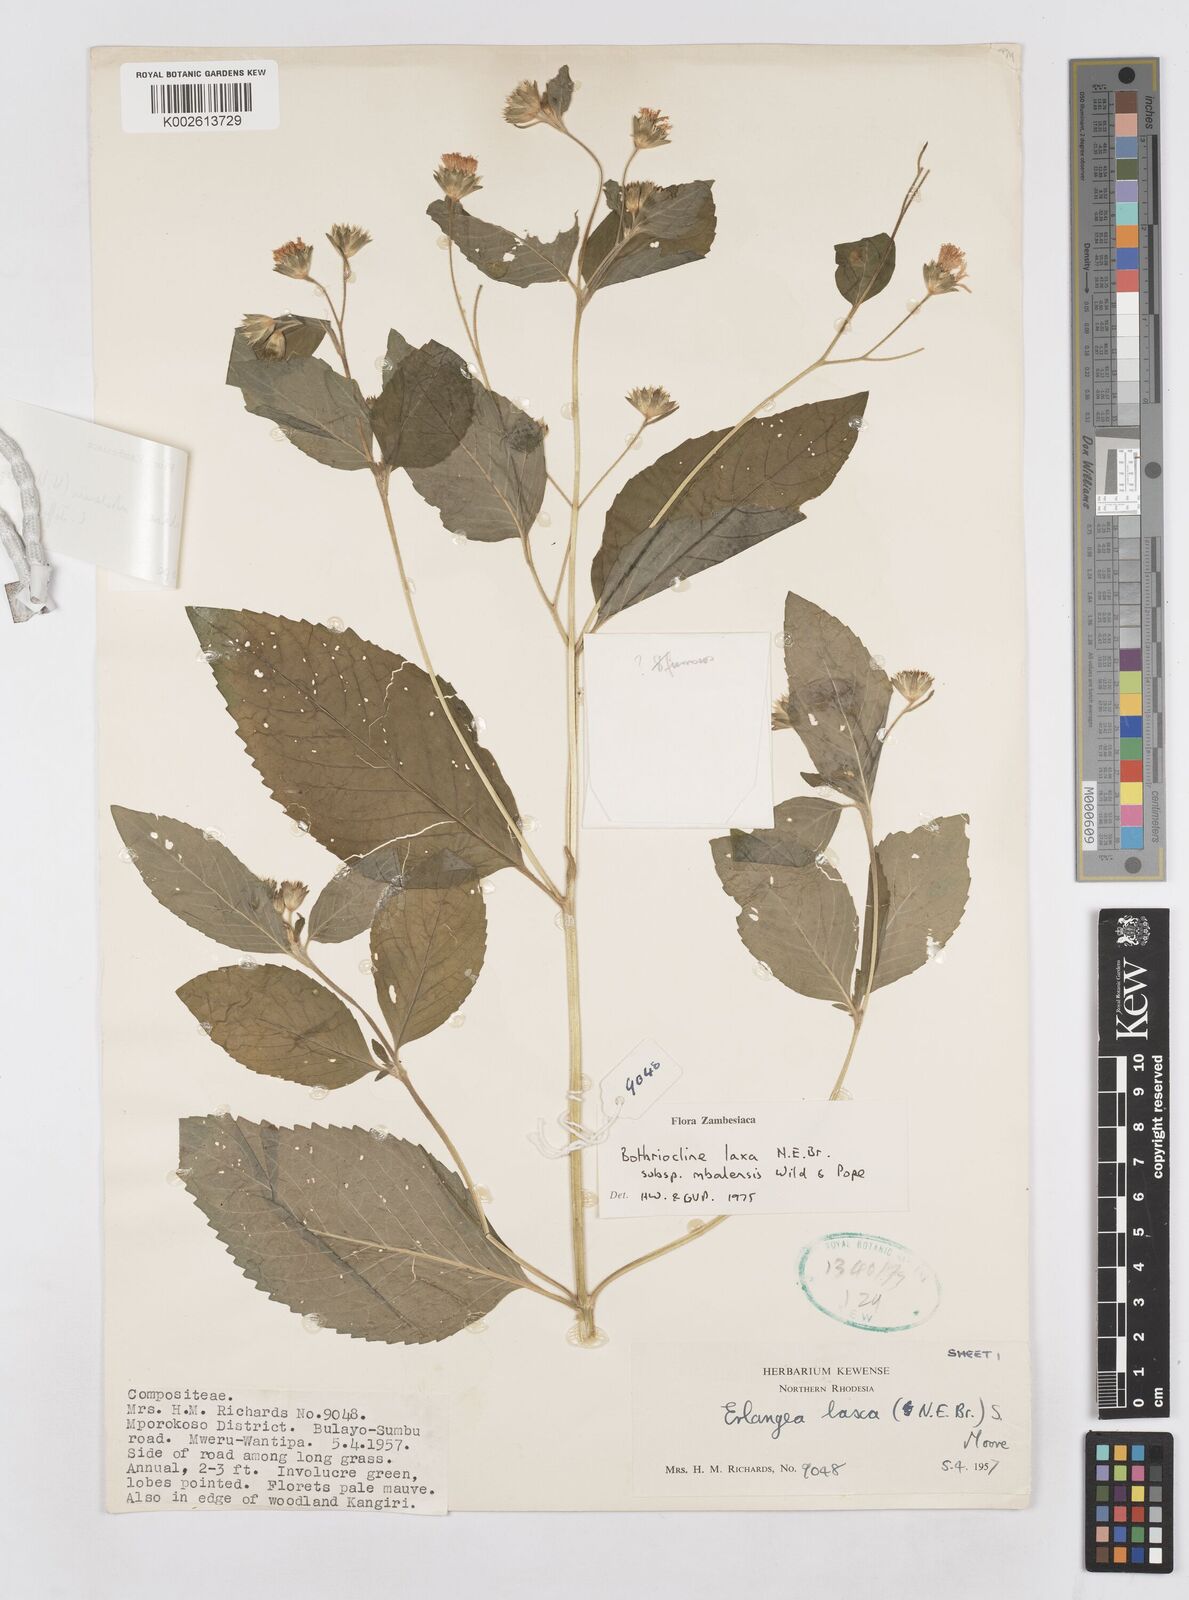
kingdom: Plantae
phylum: Tracheophyta
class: Magnoliopsida
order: Asterales
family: Asteraceae
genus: Bothriocline
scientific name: Bothriocline mbalensis
